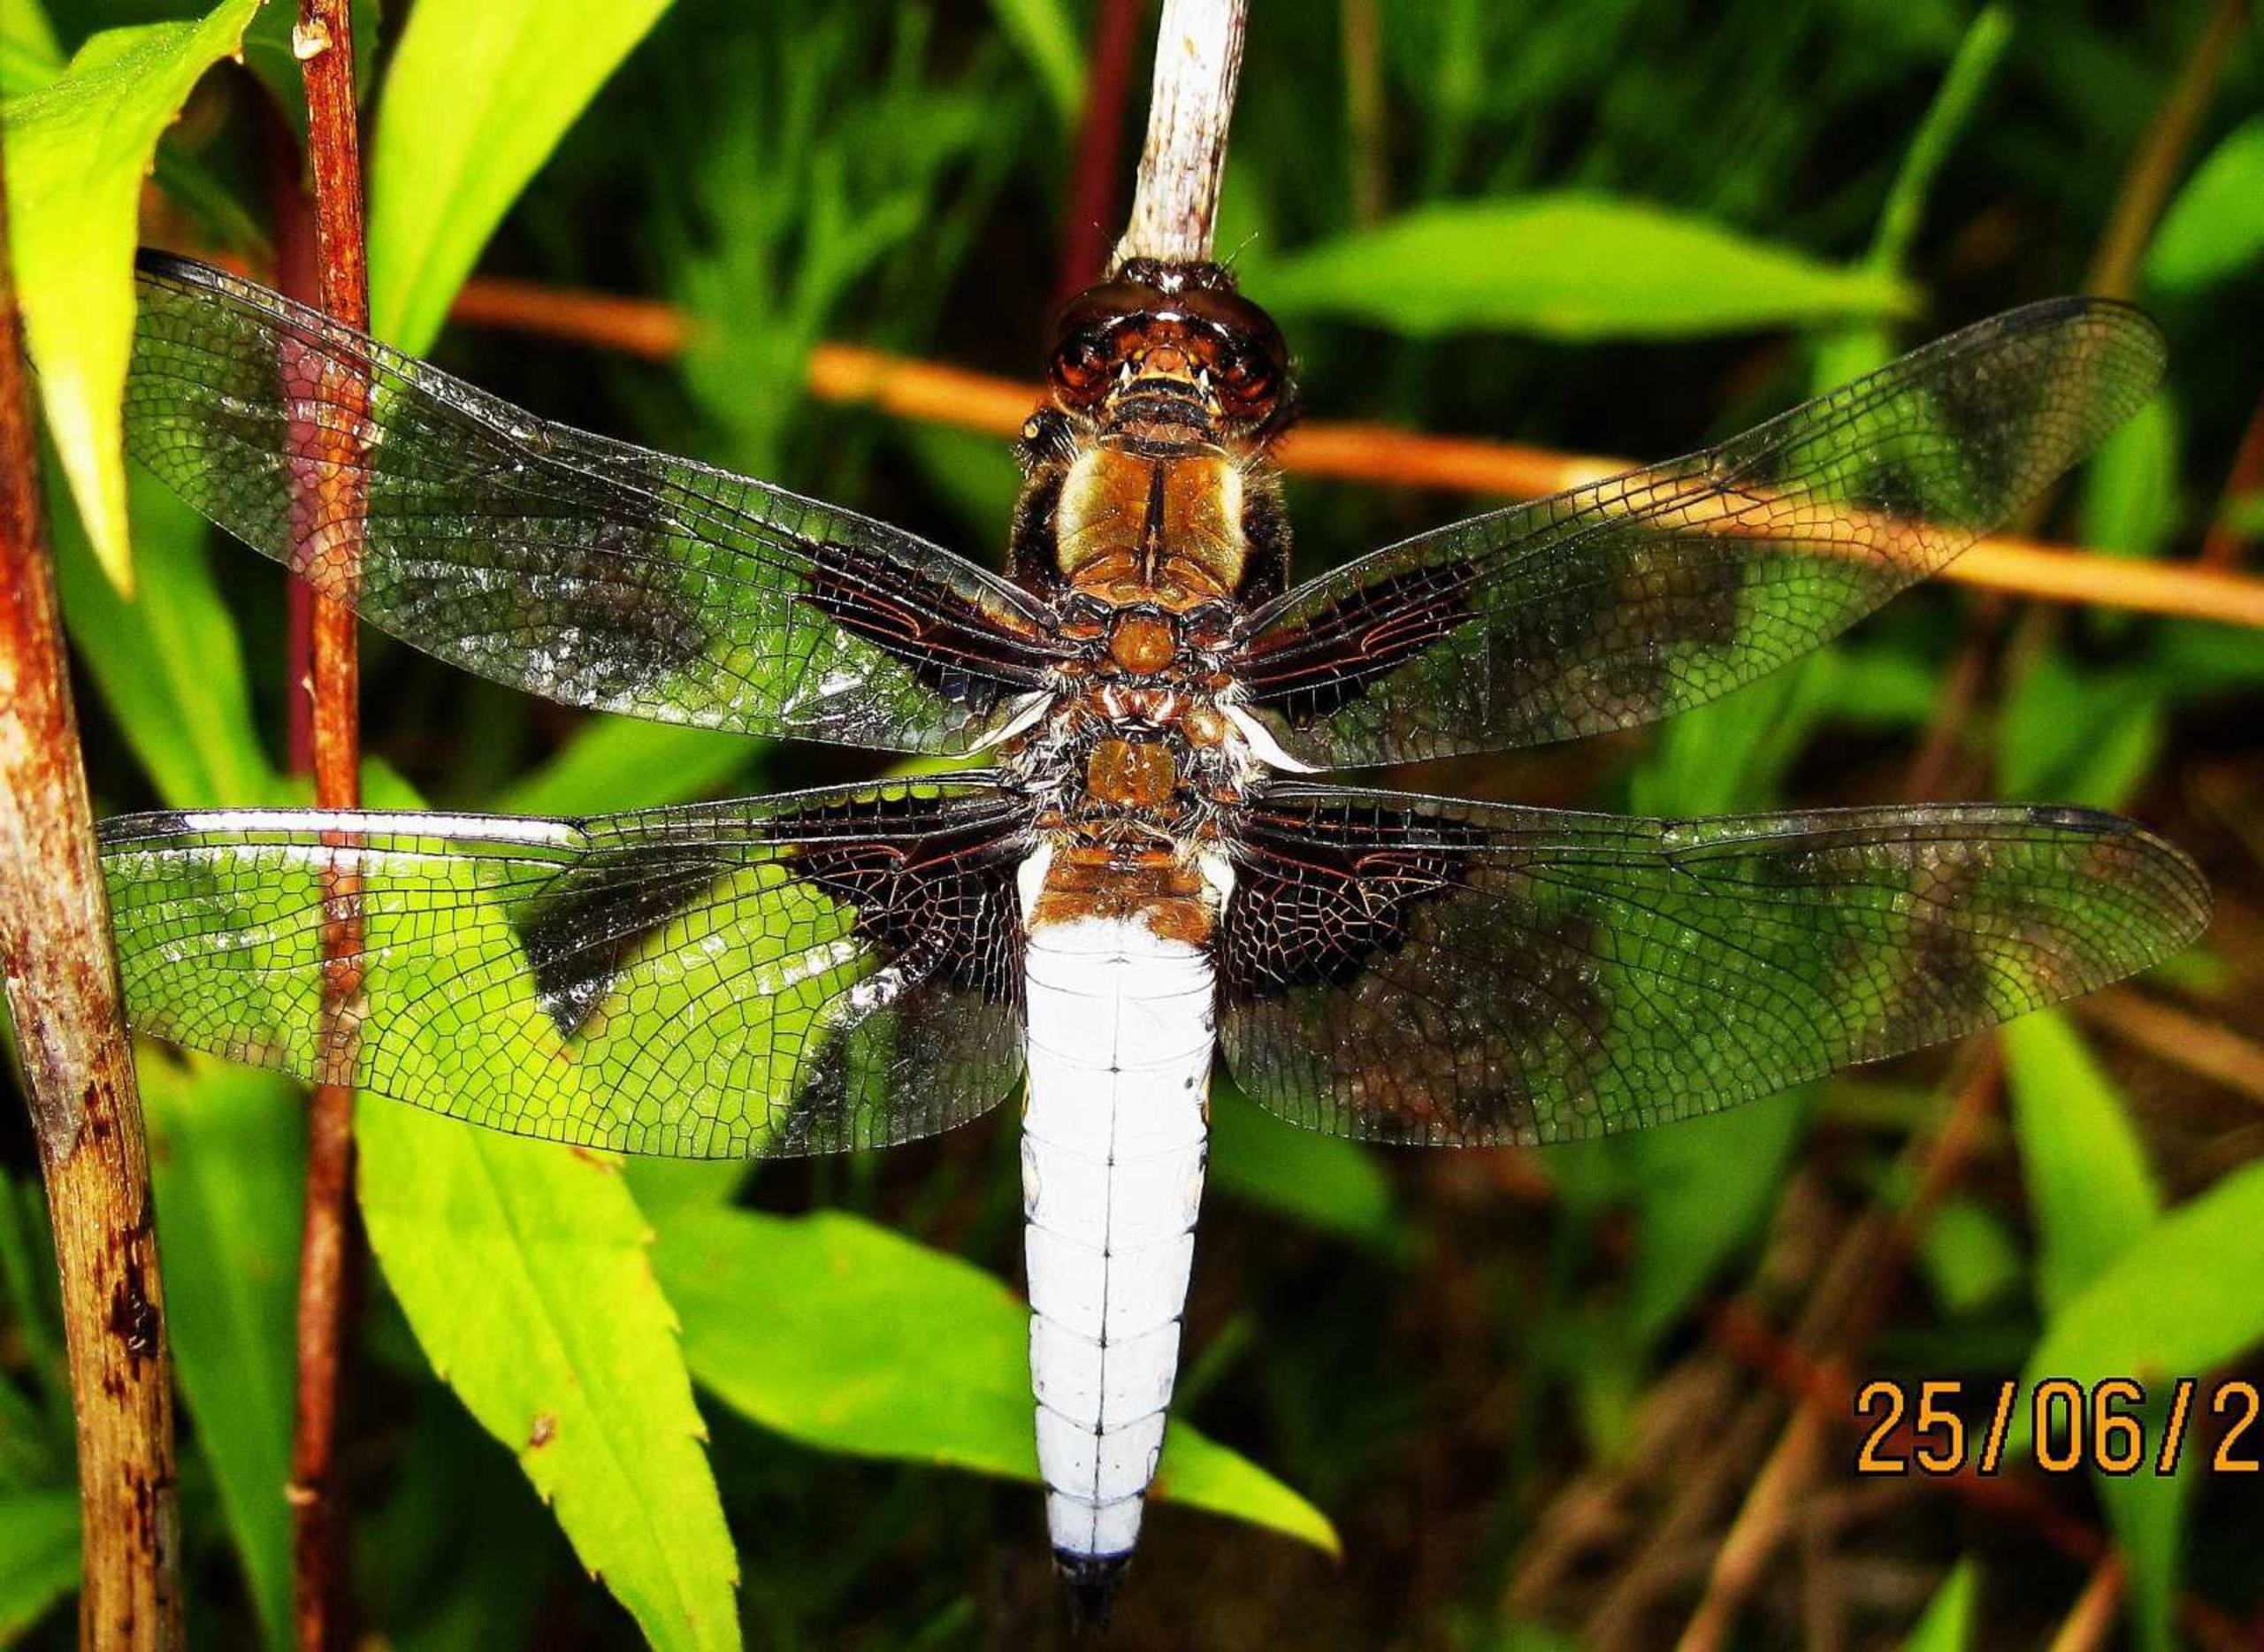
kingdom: Animalia
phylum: Arthropoda
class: Insecta
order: Odonata
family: Libellulidae
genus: Libellula
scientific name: Libellula depressa
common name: Blå libel
